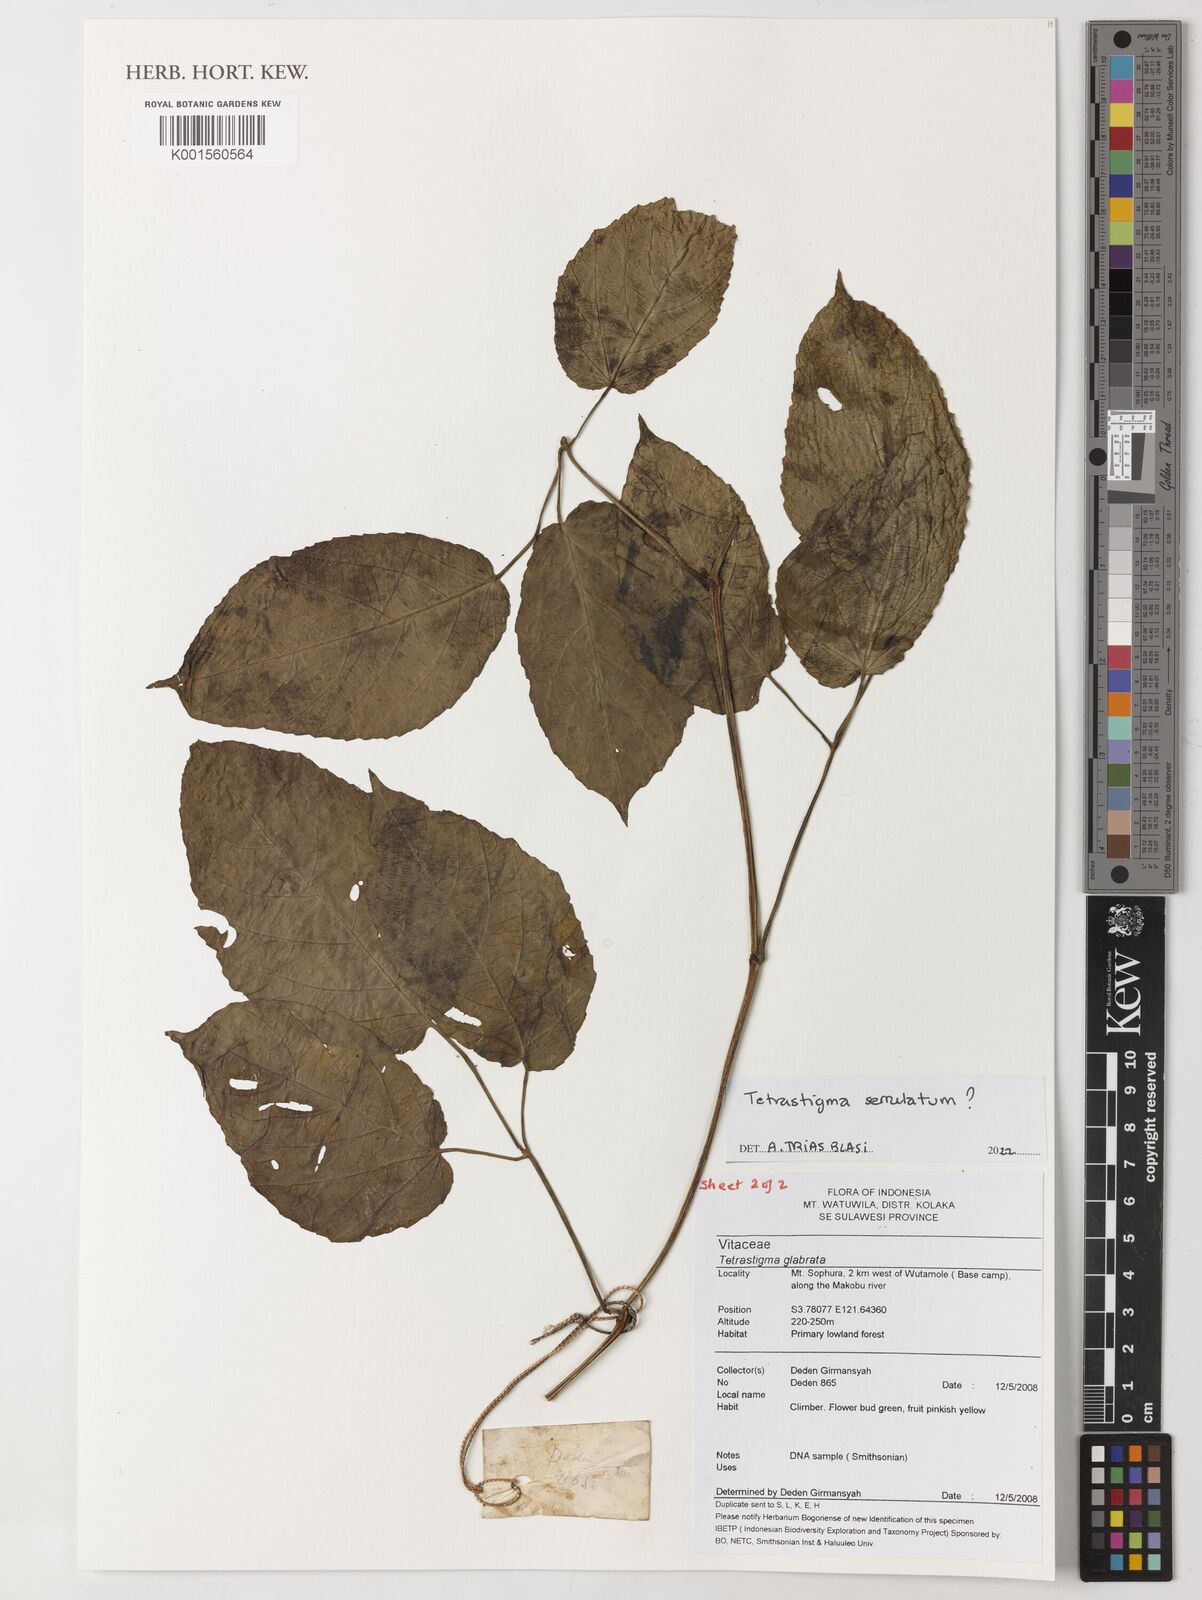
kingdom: Plantae
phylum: Tracheophyta
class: Magnoliopsida
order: Vitales
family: Vitaceae
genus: Tetrastigma
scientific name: Tetrastigma serrulatum
